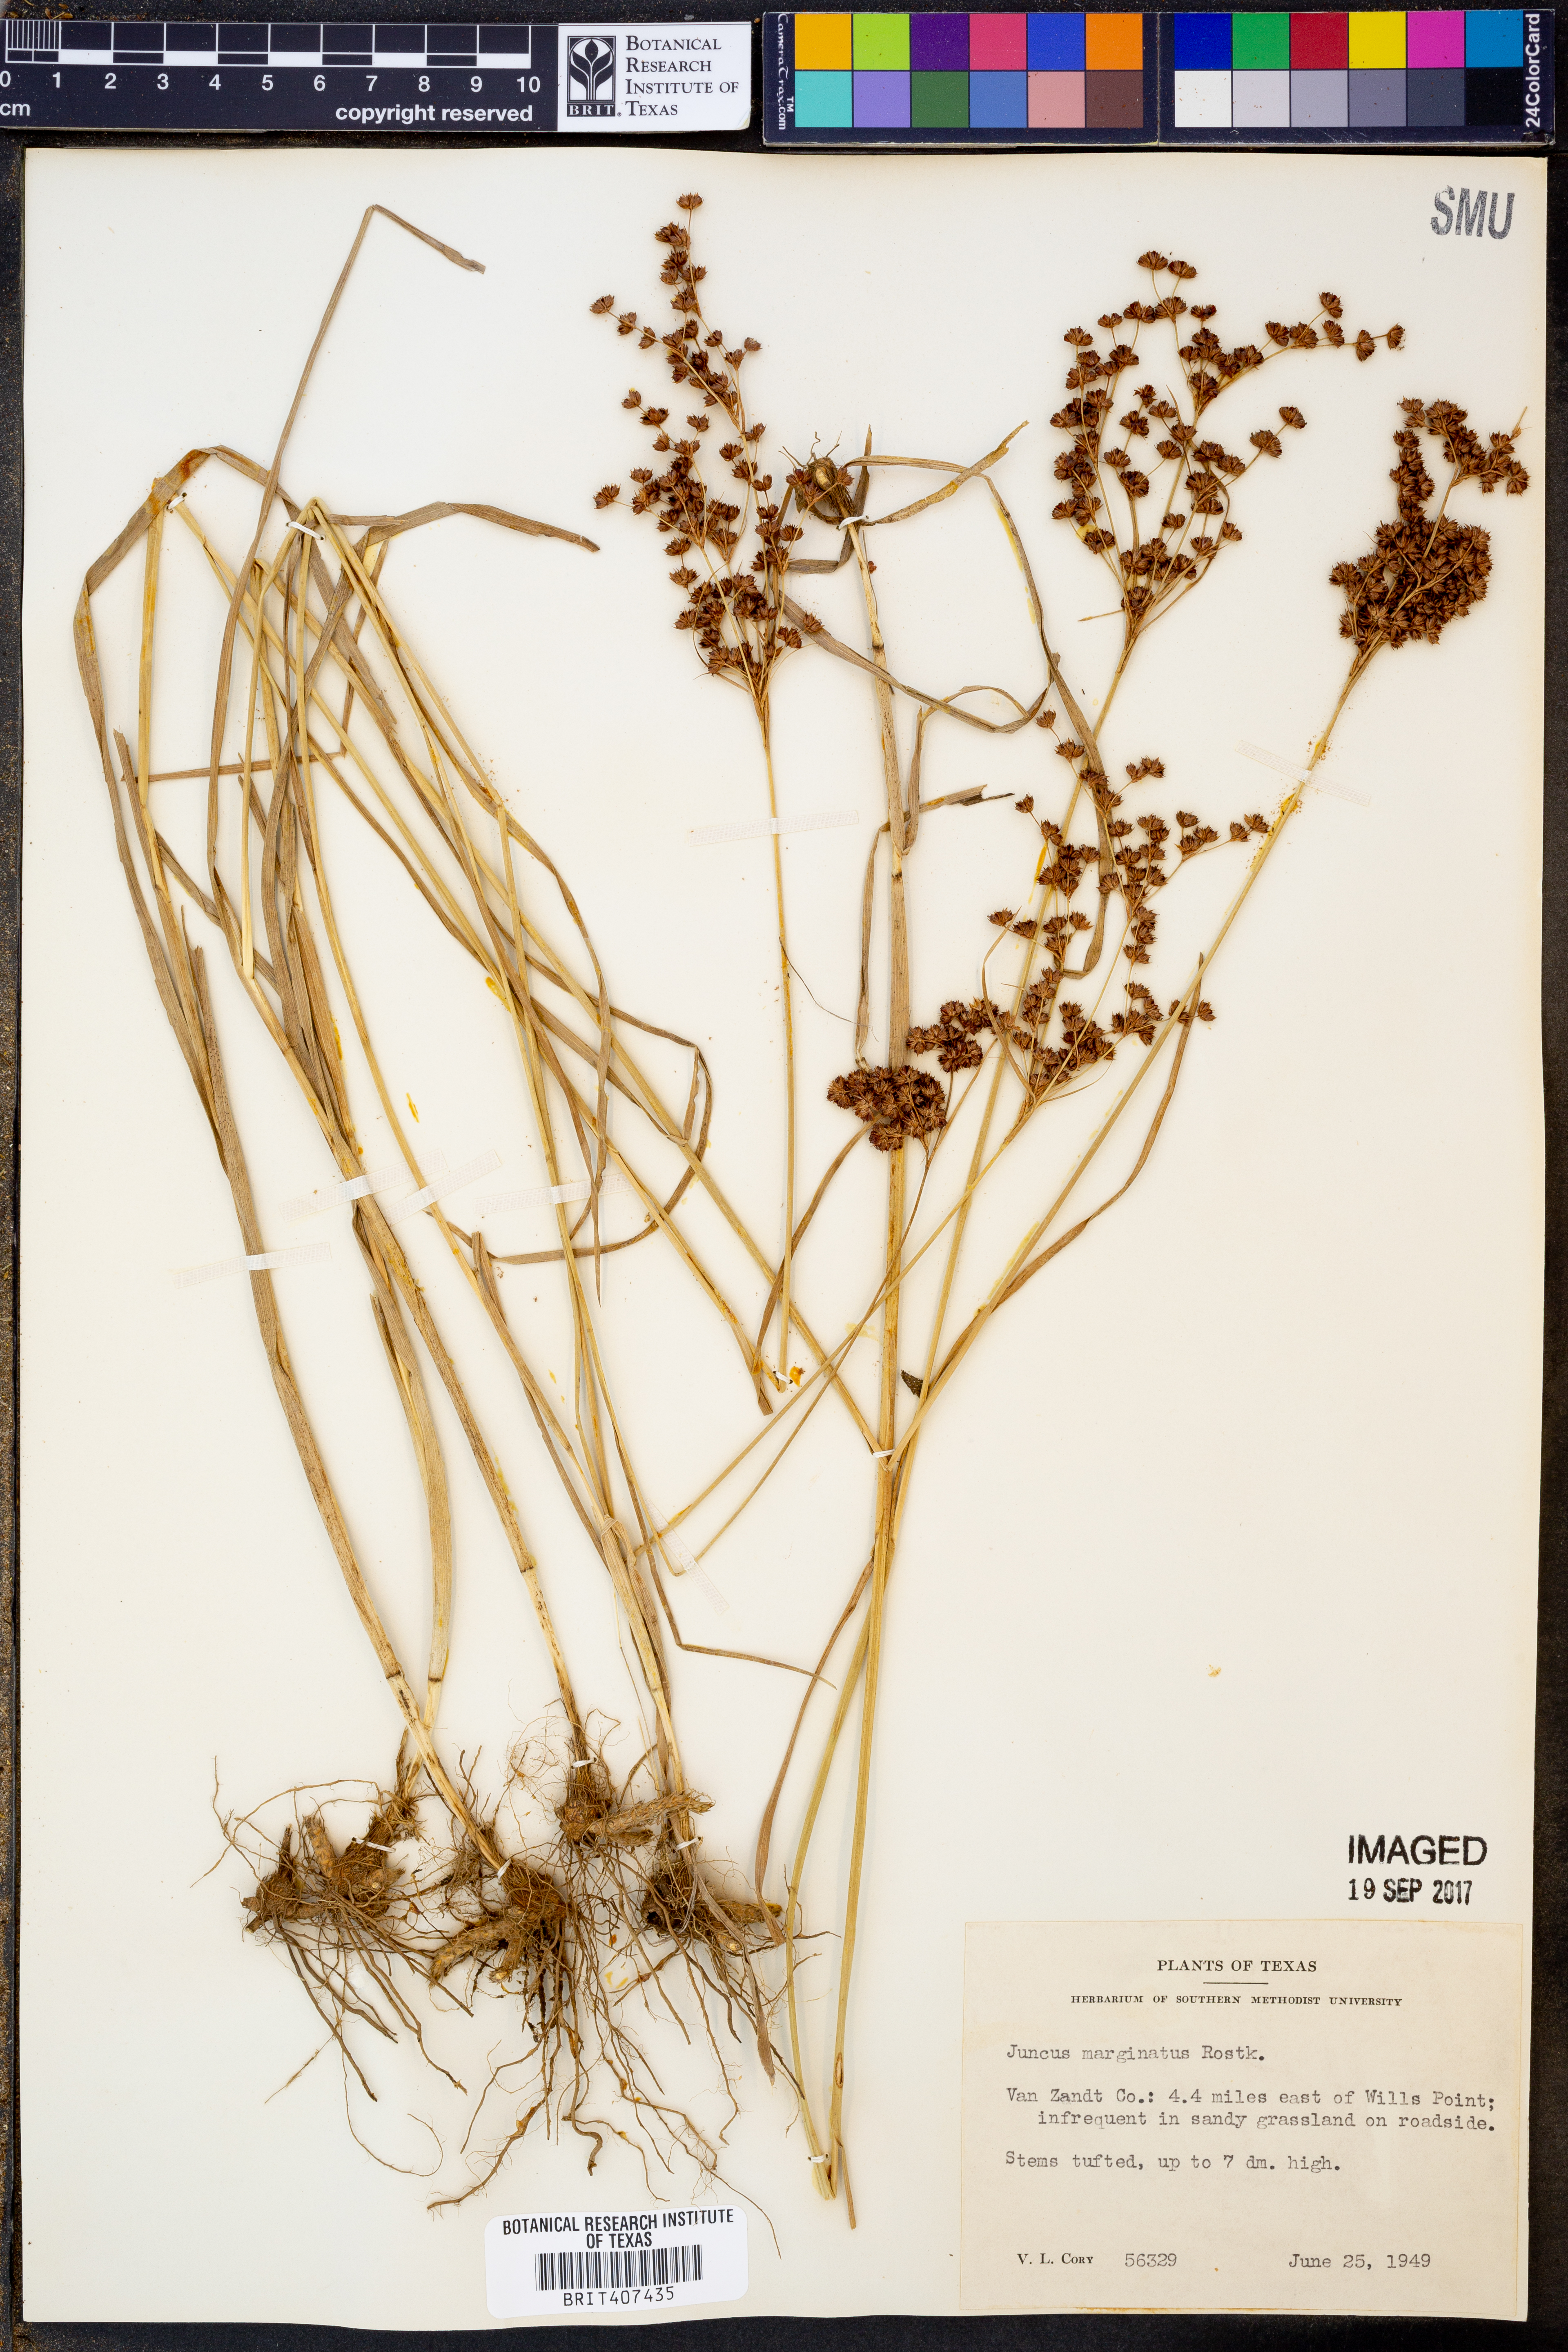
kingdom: Plantae
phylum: Tracheophyta
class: Liliopsida
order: Poales
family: Juncaceae
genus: Juncus
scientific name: Juncus marginatus
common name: Grass-leaf rush
